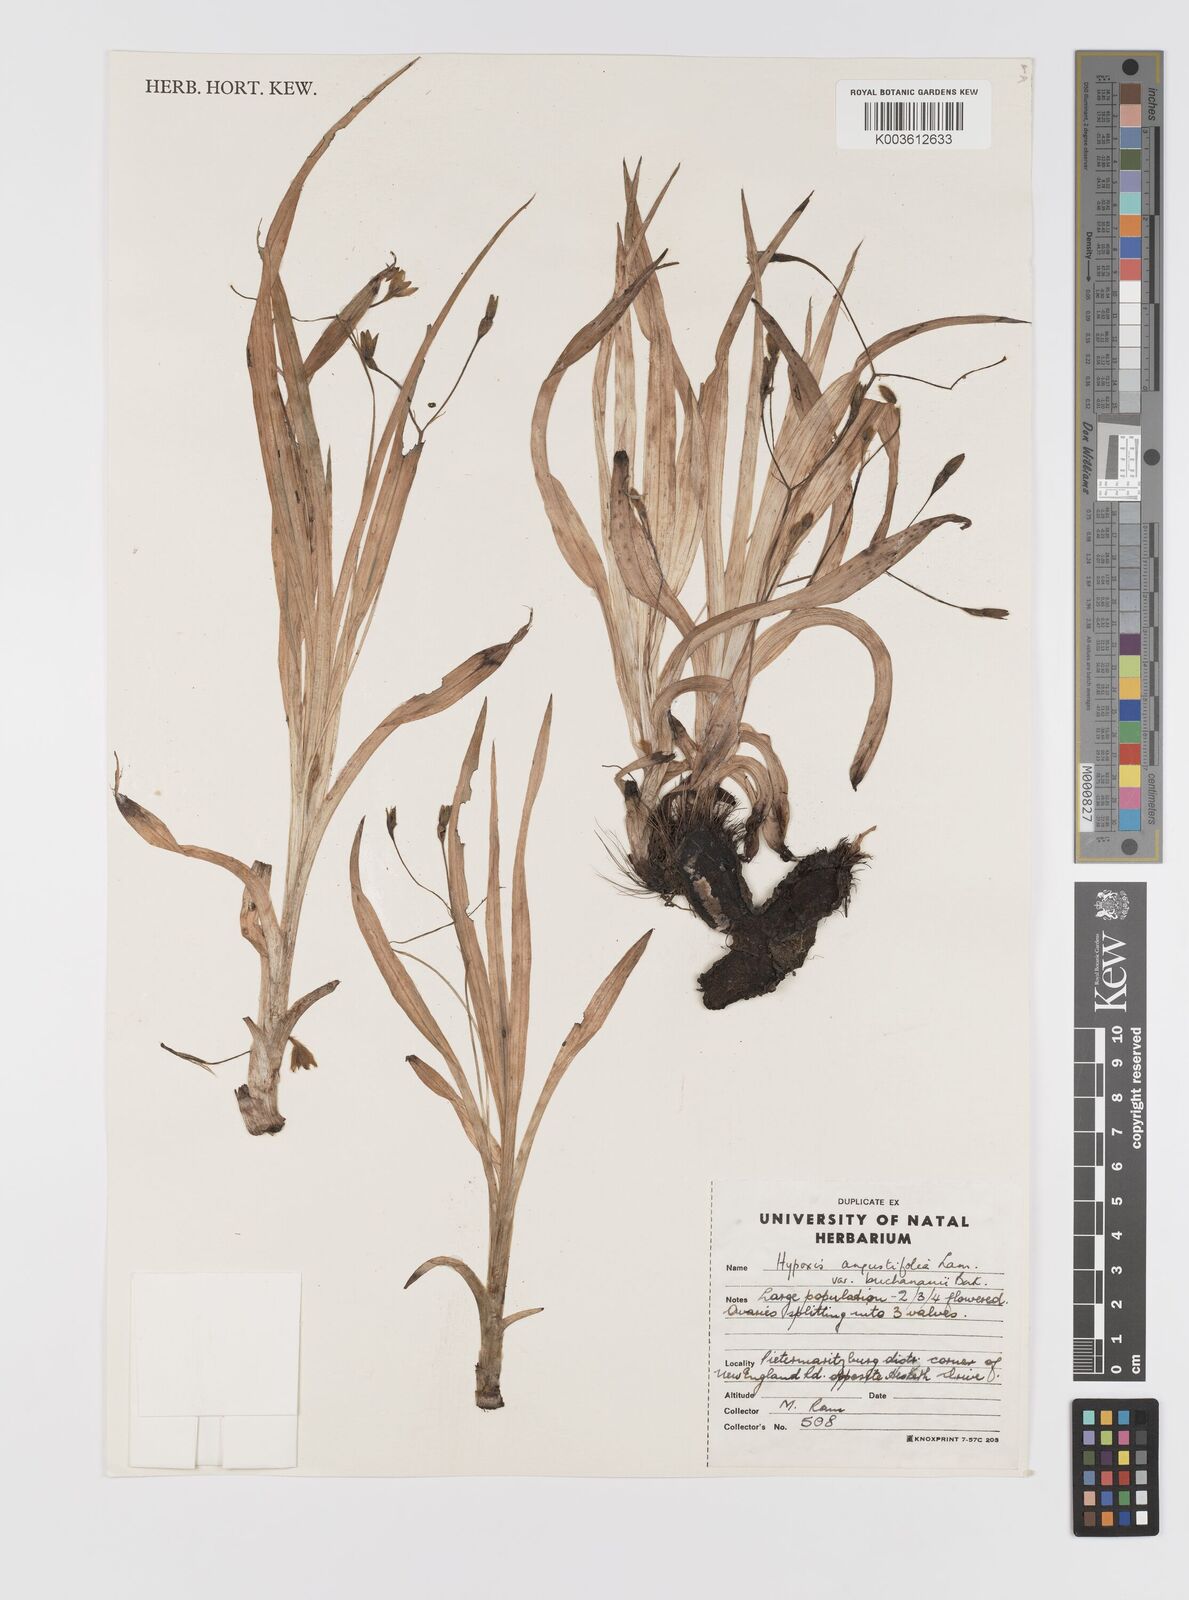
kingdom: Plantae
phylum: Tracheophyta
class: Liliopsida
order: Asparagales
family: Hypoxidaceae
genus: Hypoxis
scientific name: Hypoxis angustifolia
